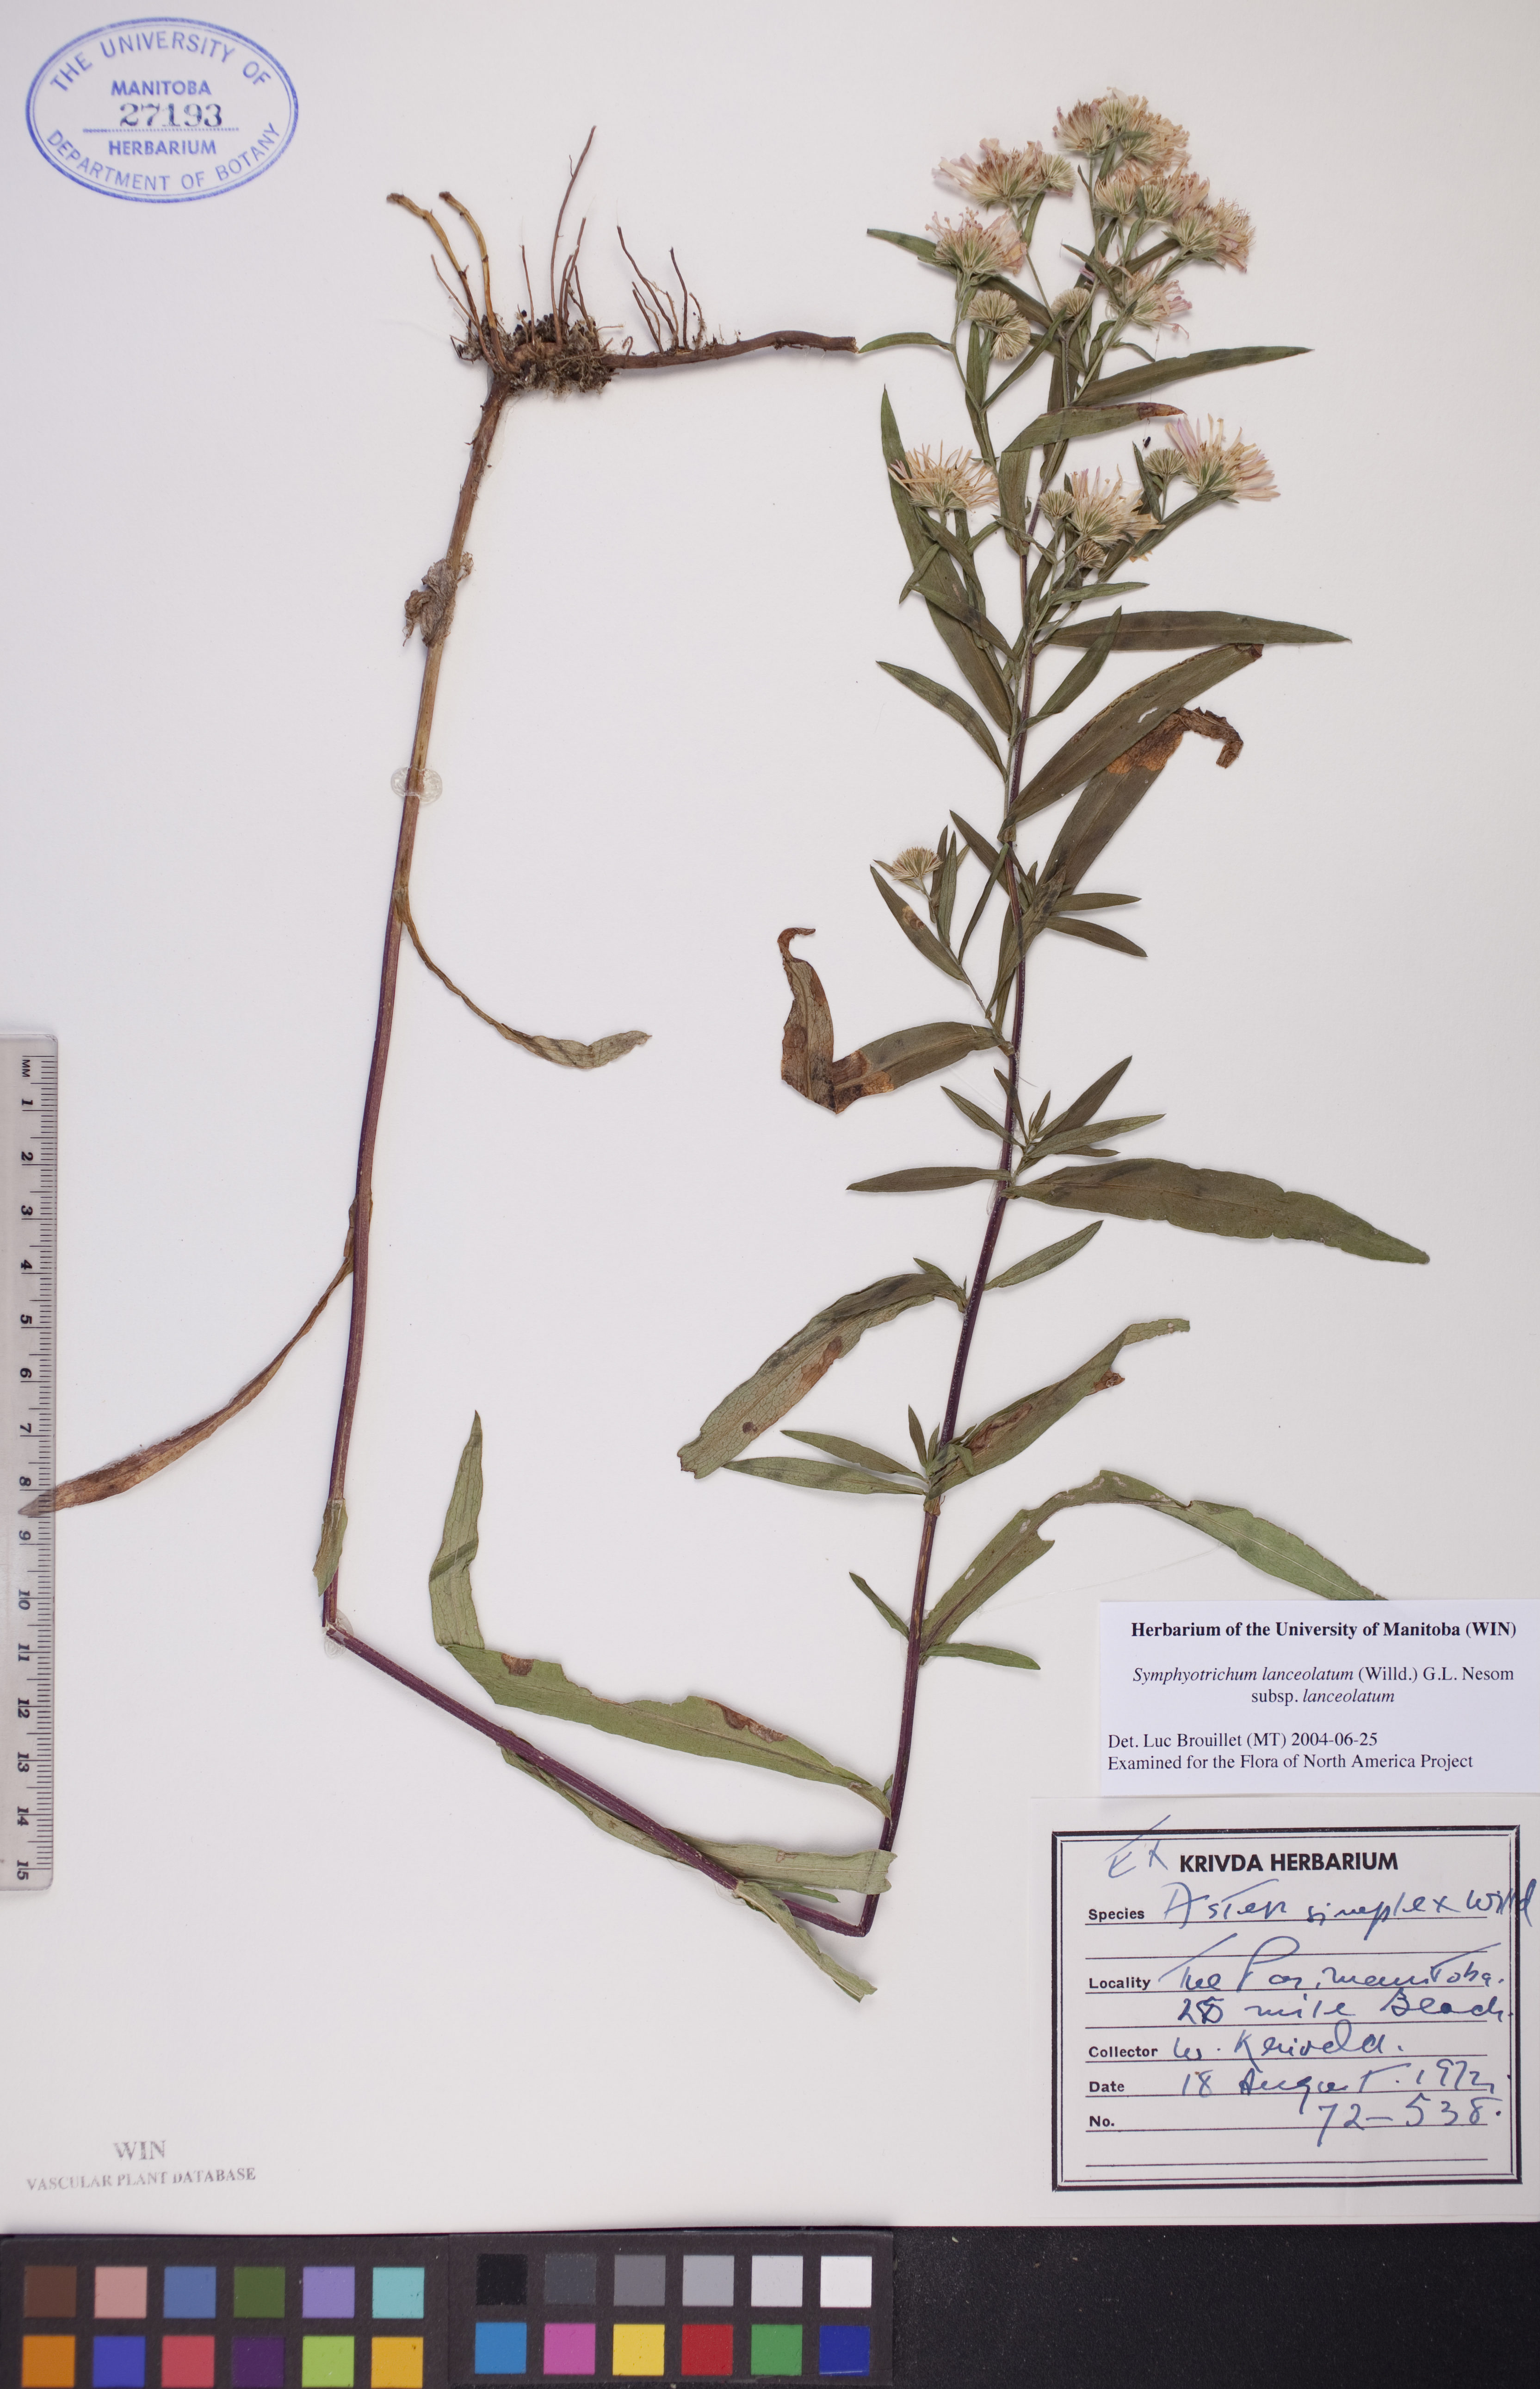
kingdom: Plantae
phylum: Tracheophyta
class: Magnoliopsida
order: Asterales
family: Asteraceae
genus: Symphyotrichum
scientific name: Symphyotrichum lanceolatum
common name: Panicled aster
